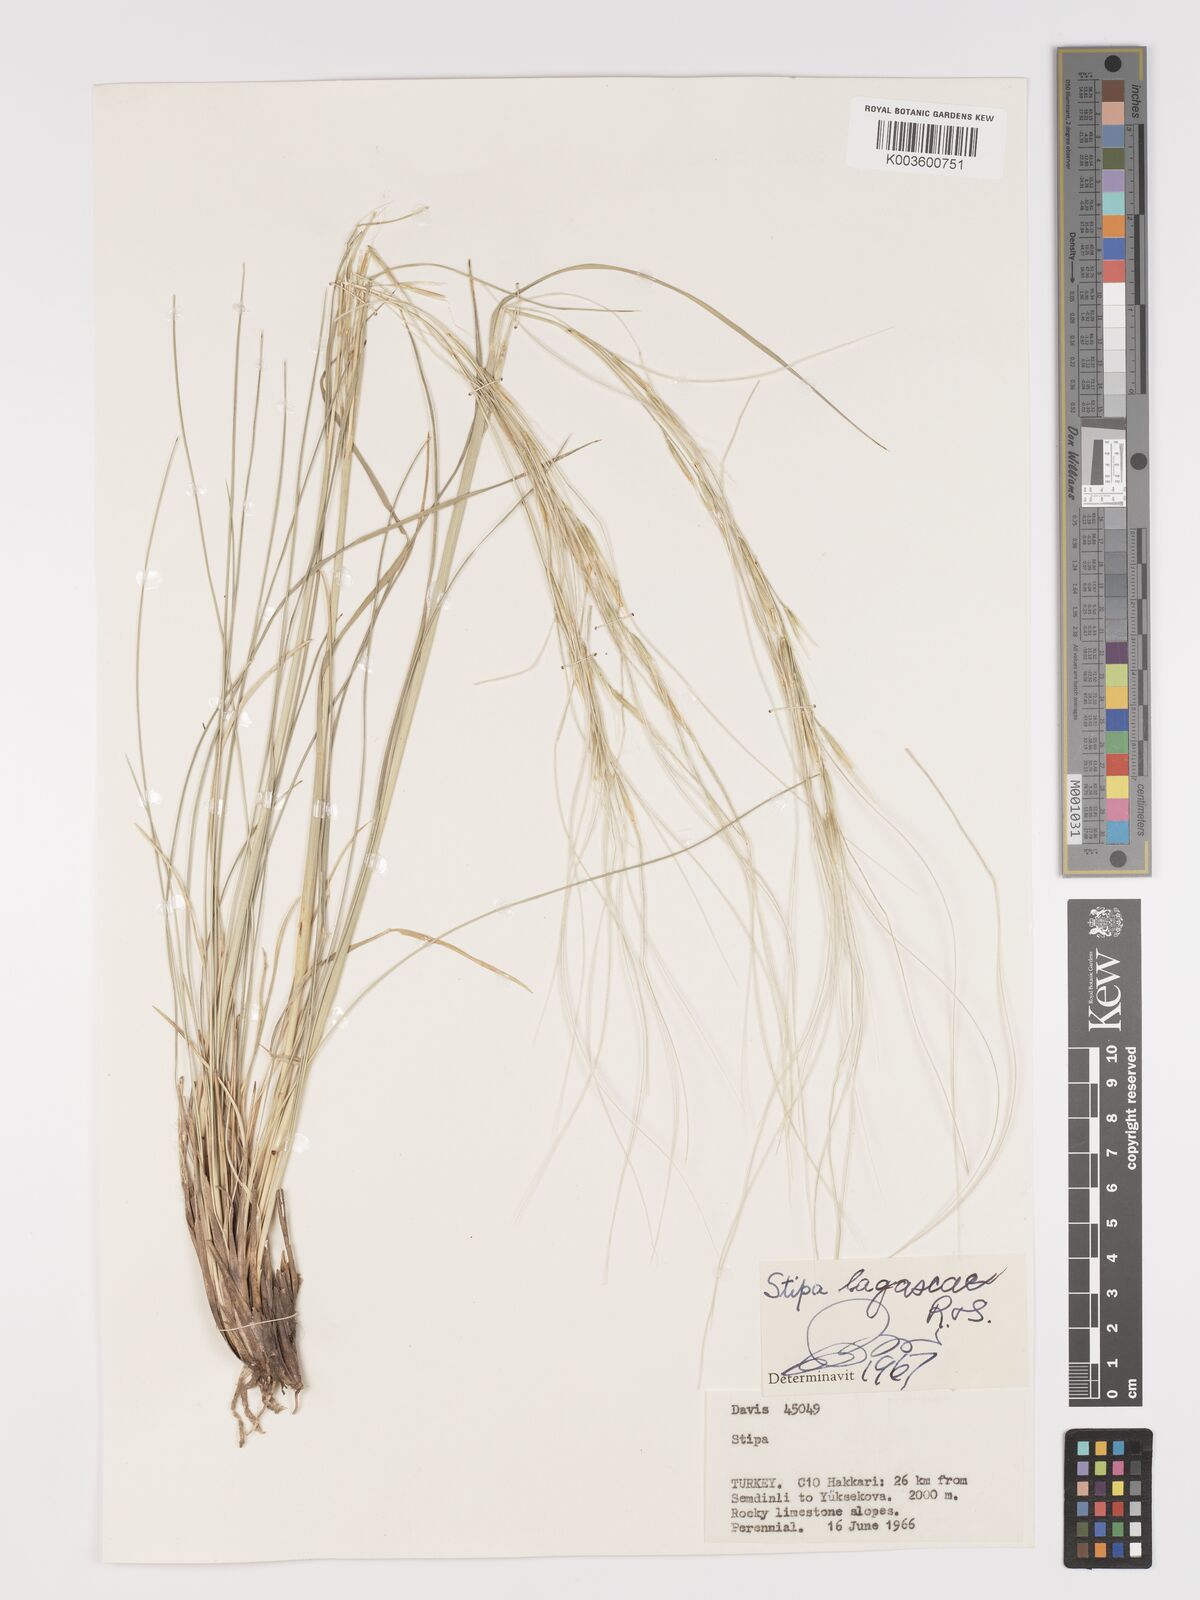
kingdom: Plantae
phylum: Tracheophyta
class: Liliopsida
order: Poales
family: Poaceae
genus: Stipa
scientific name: Stipa lagascae
